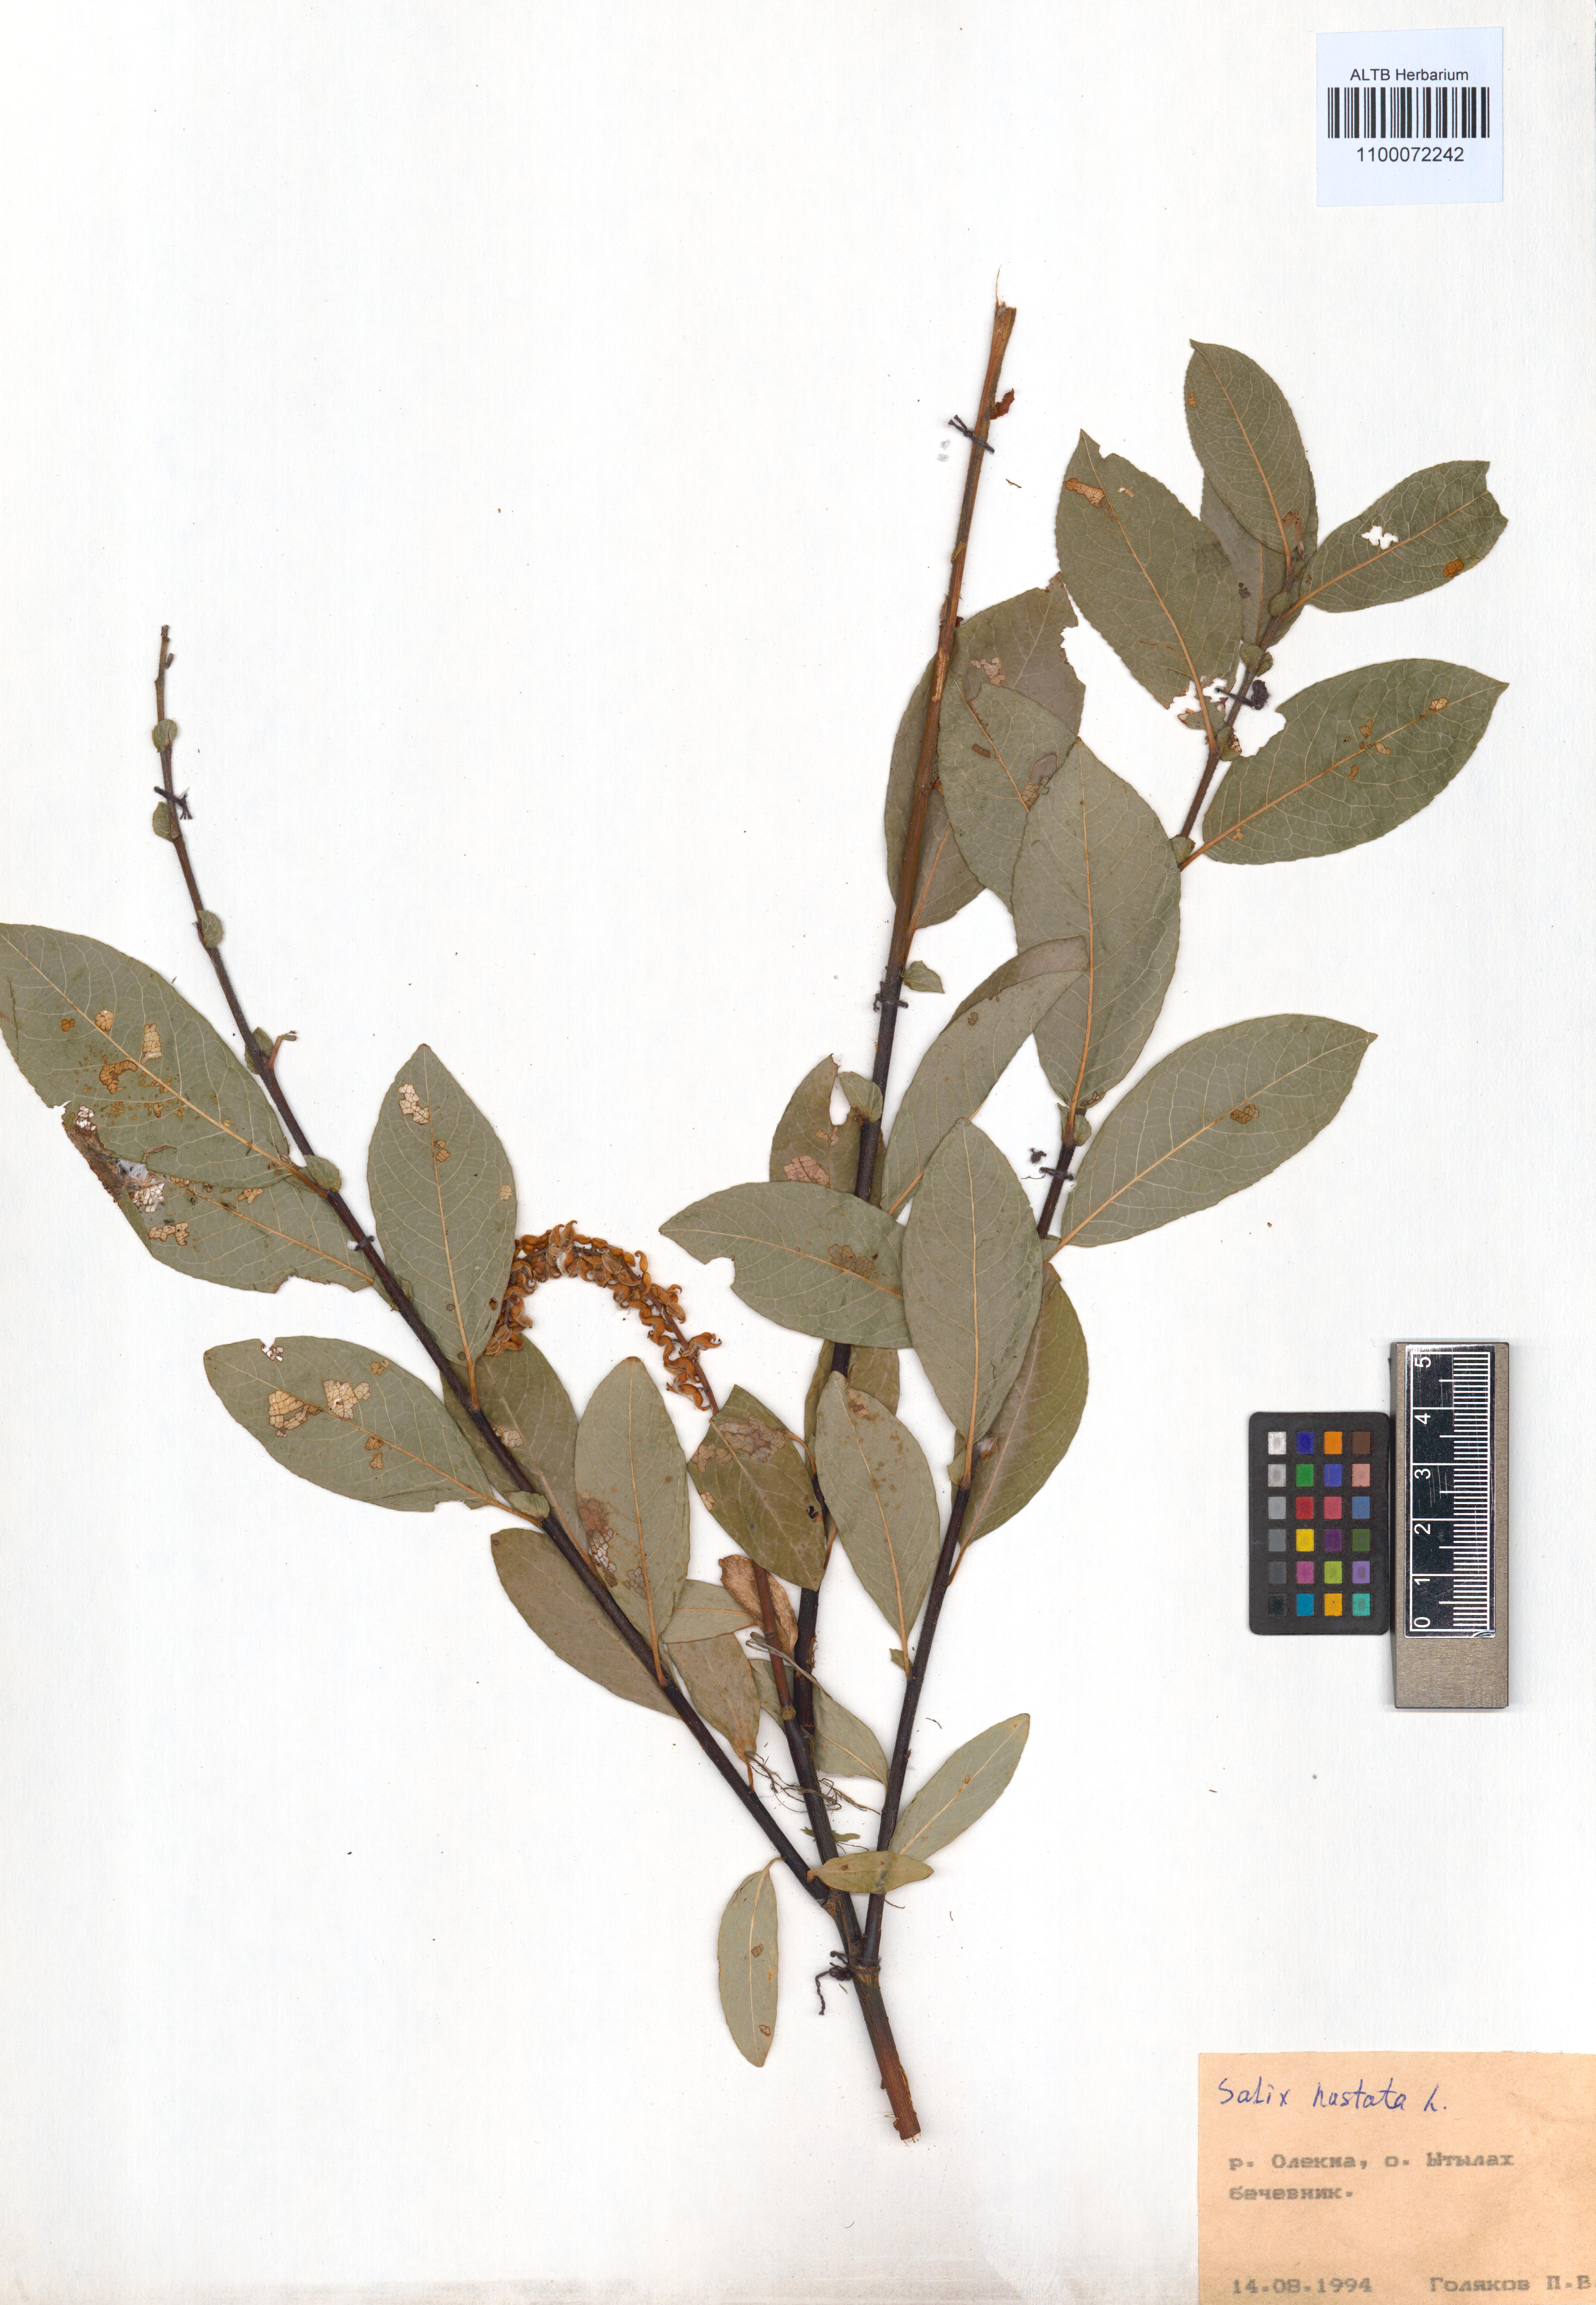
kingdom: Plantae
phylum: Tracheophyta
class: Magnoliopsida
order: Malpighiales
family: Salicaceae
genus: Salix
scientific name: Salix hastata
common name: Halberd willow
